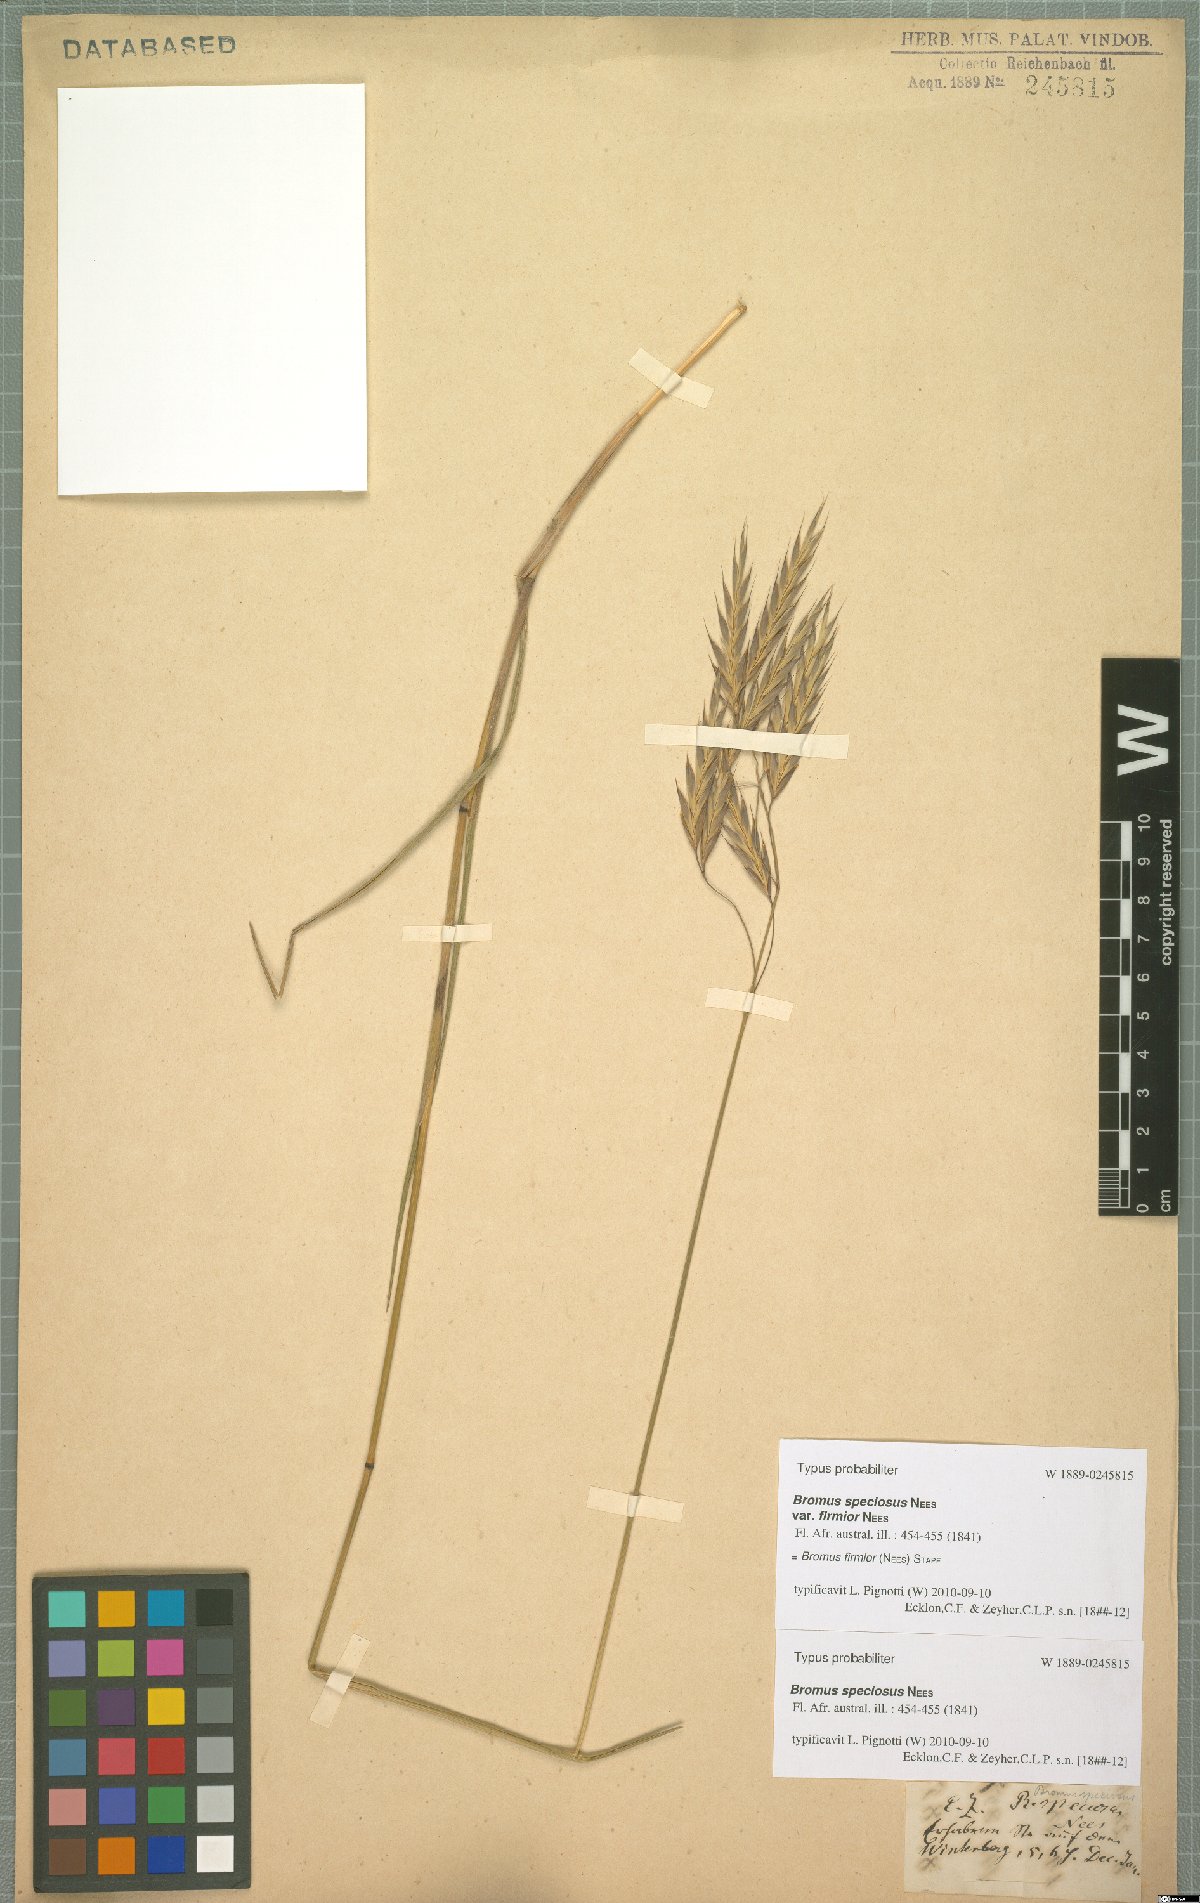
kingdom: Plantae
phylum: Tracheophyta
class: Liliopsida
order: Poales
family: Poaceae
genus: Bromus
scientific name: Bromus firmior
